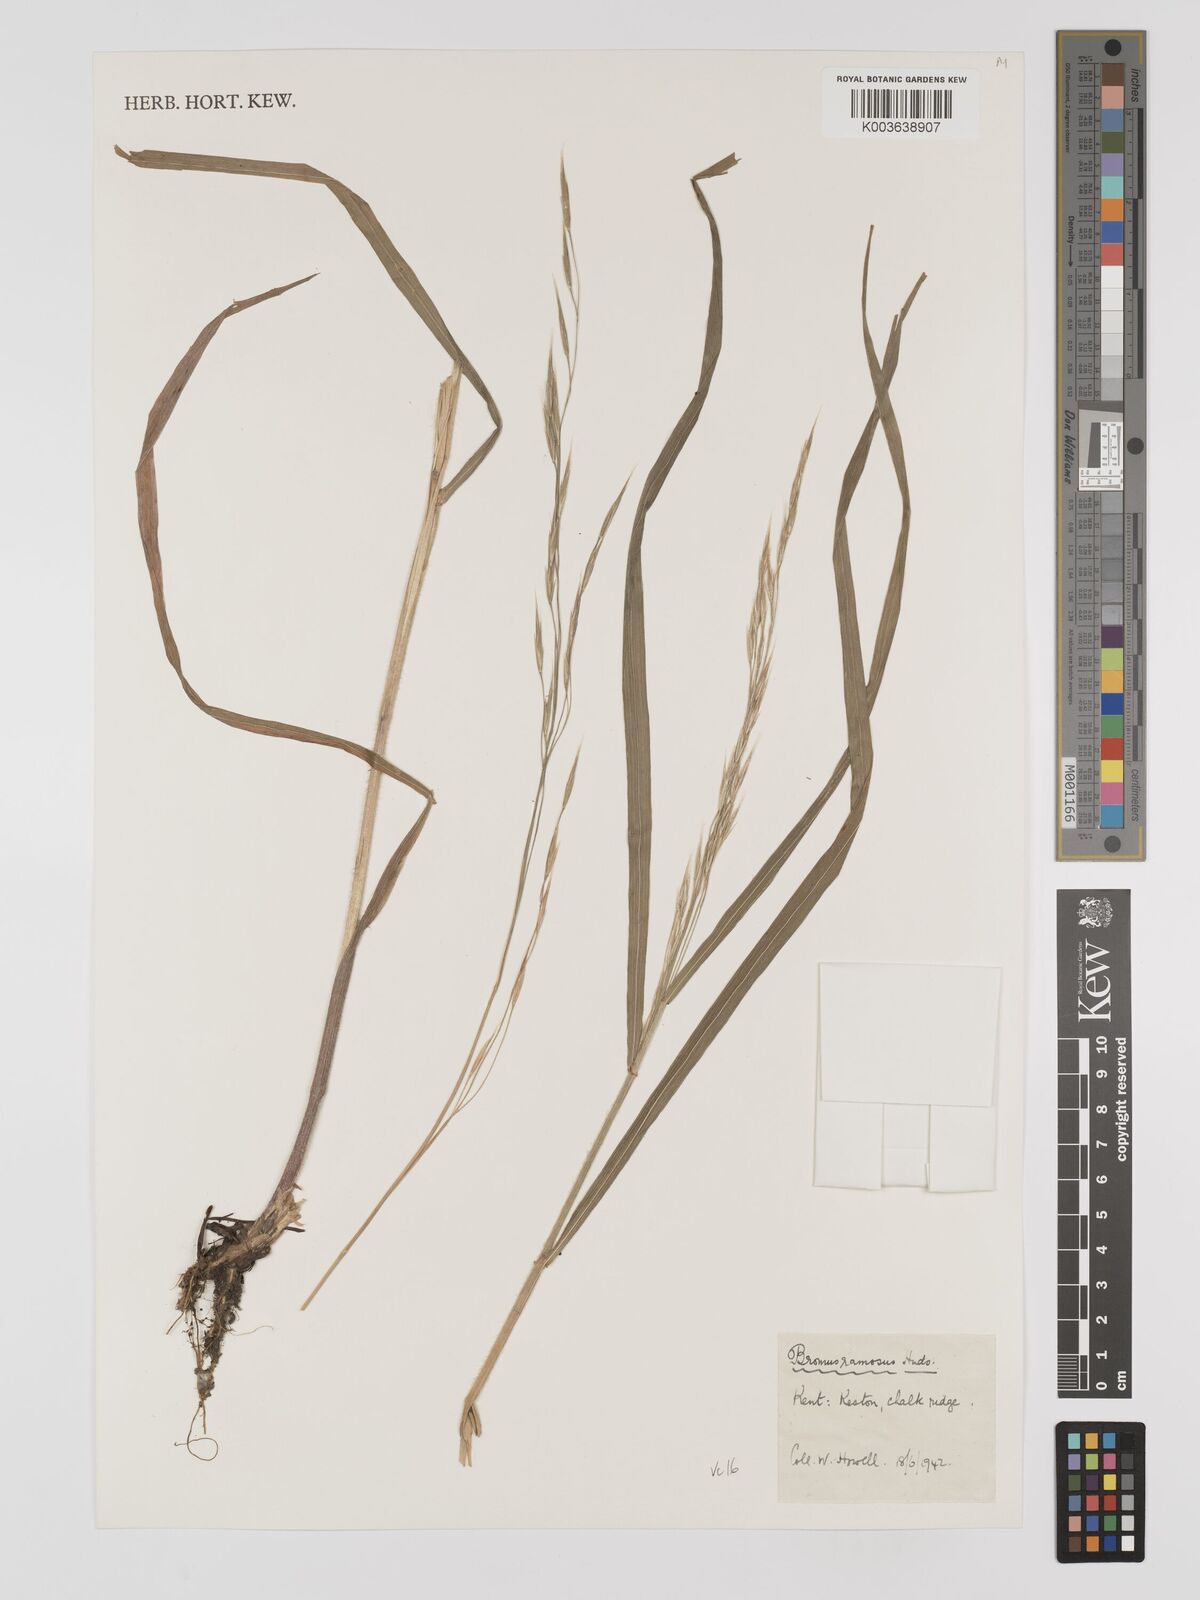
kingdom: Plantae
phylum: Tracheophyta
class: Liliopsida
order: Poales
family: Poaceae
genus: Bromus
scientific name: Bromus ramosus
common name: Hairy brome
